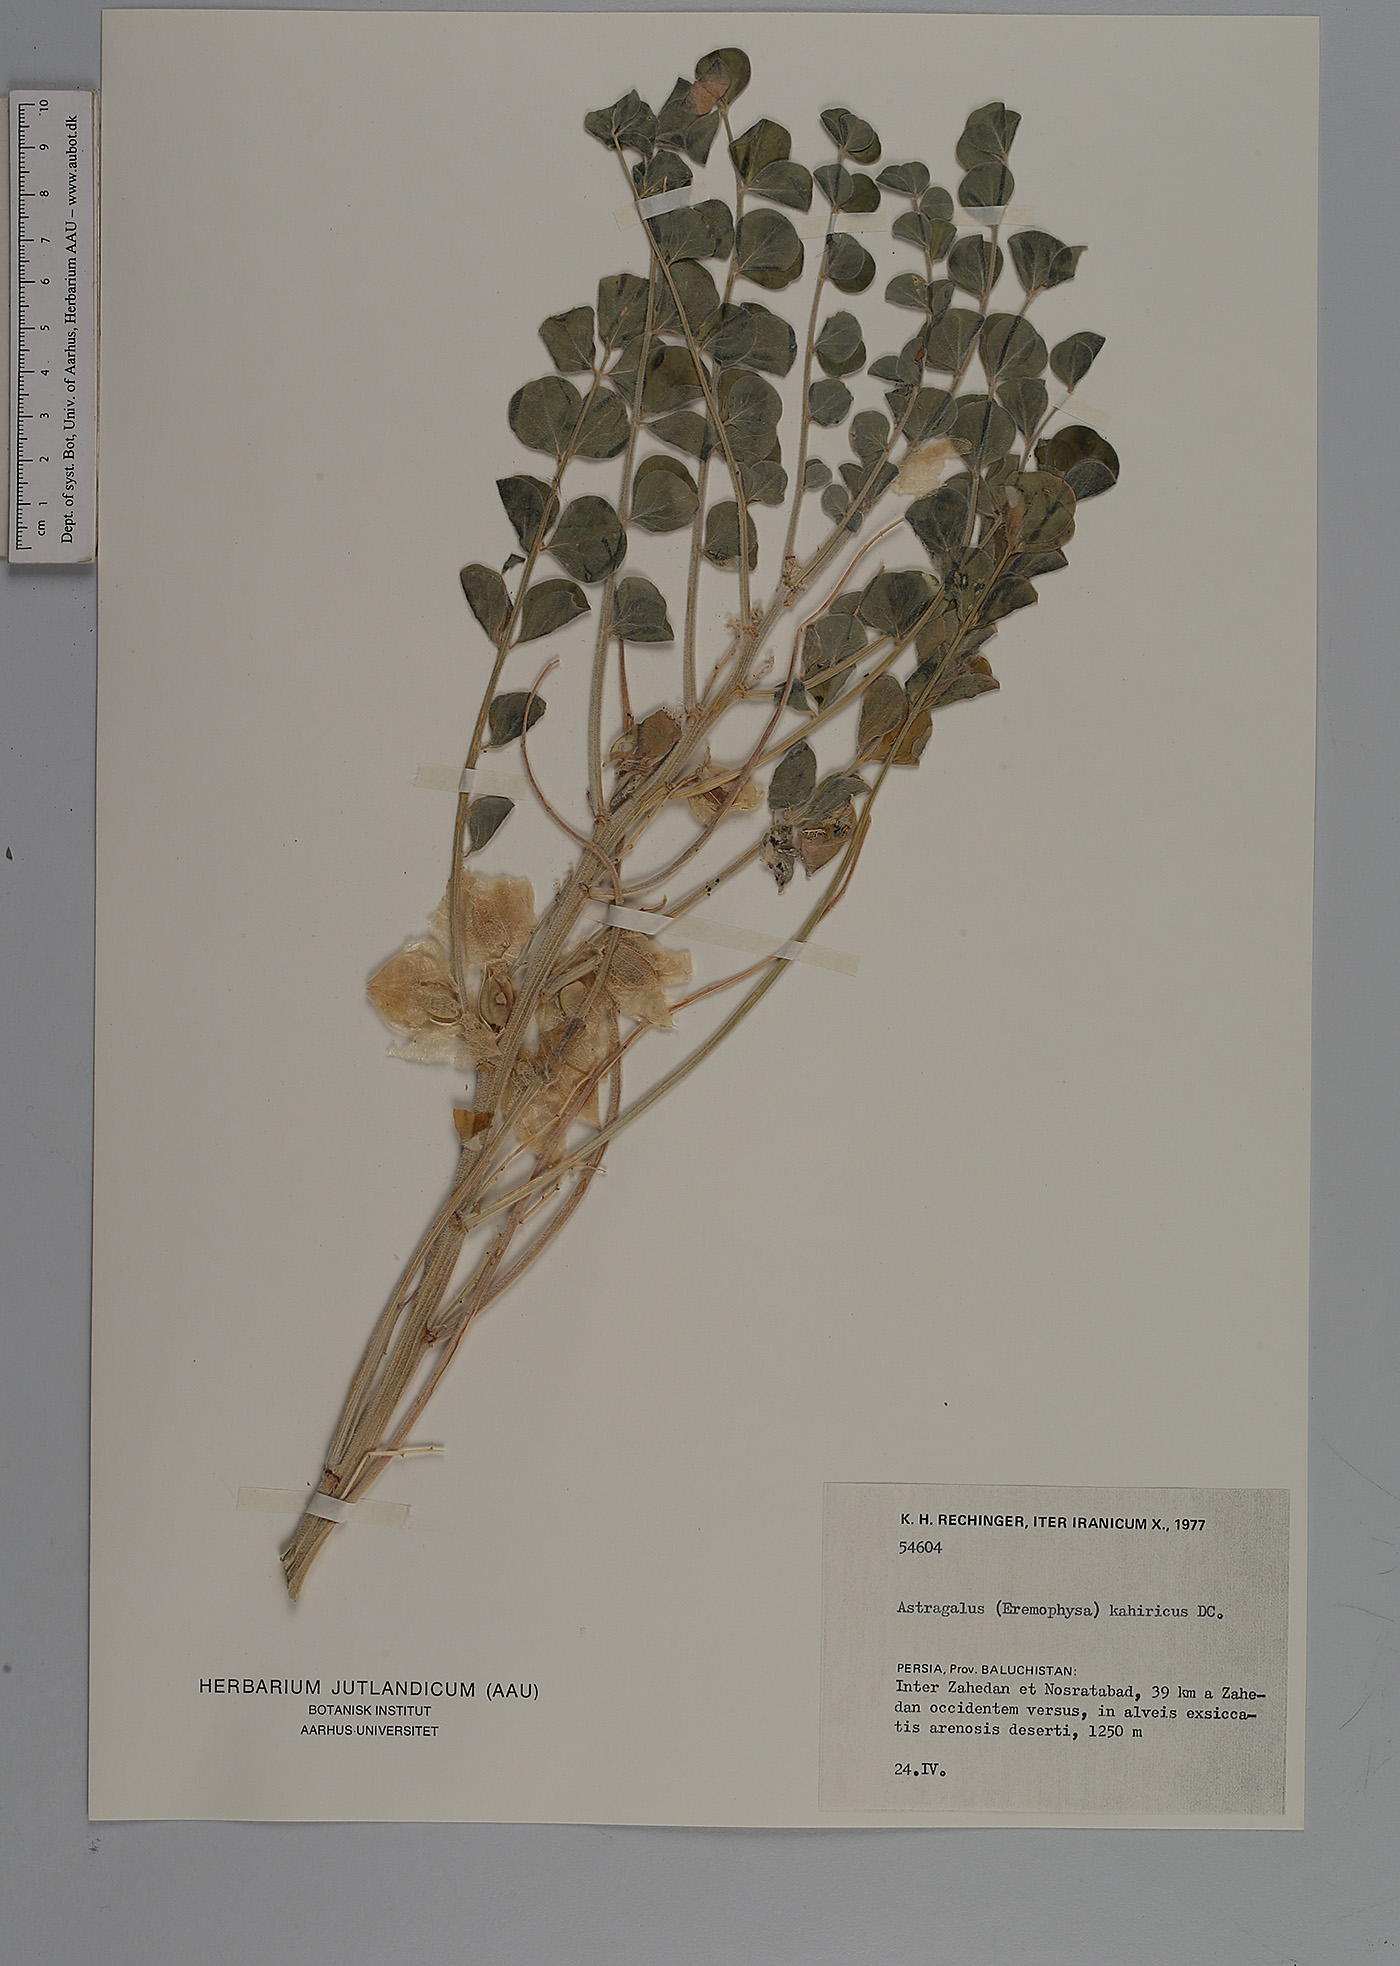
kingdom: Plantae
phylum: Tracheophyta
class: Magnoliopsida
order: Fabales
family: Fabaceae
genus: Astragalus
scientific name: Astragalus kahiricus
